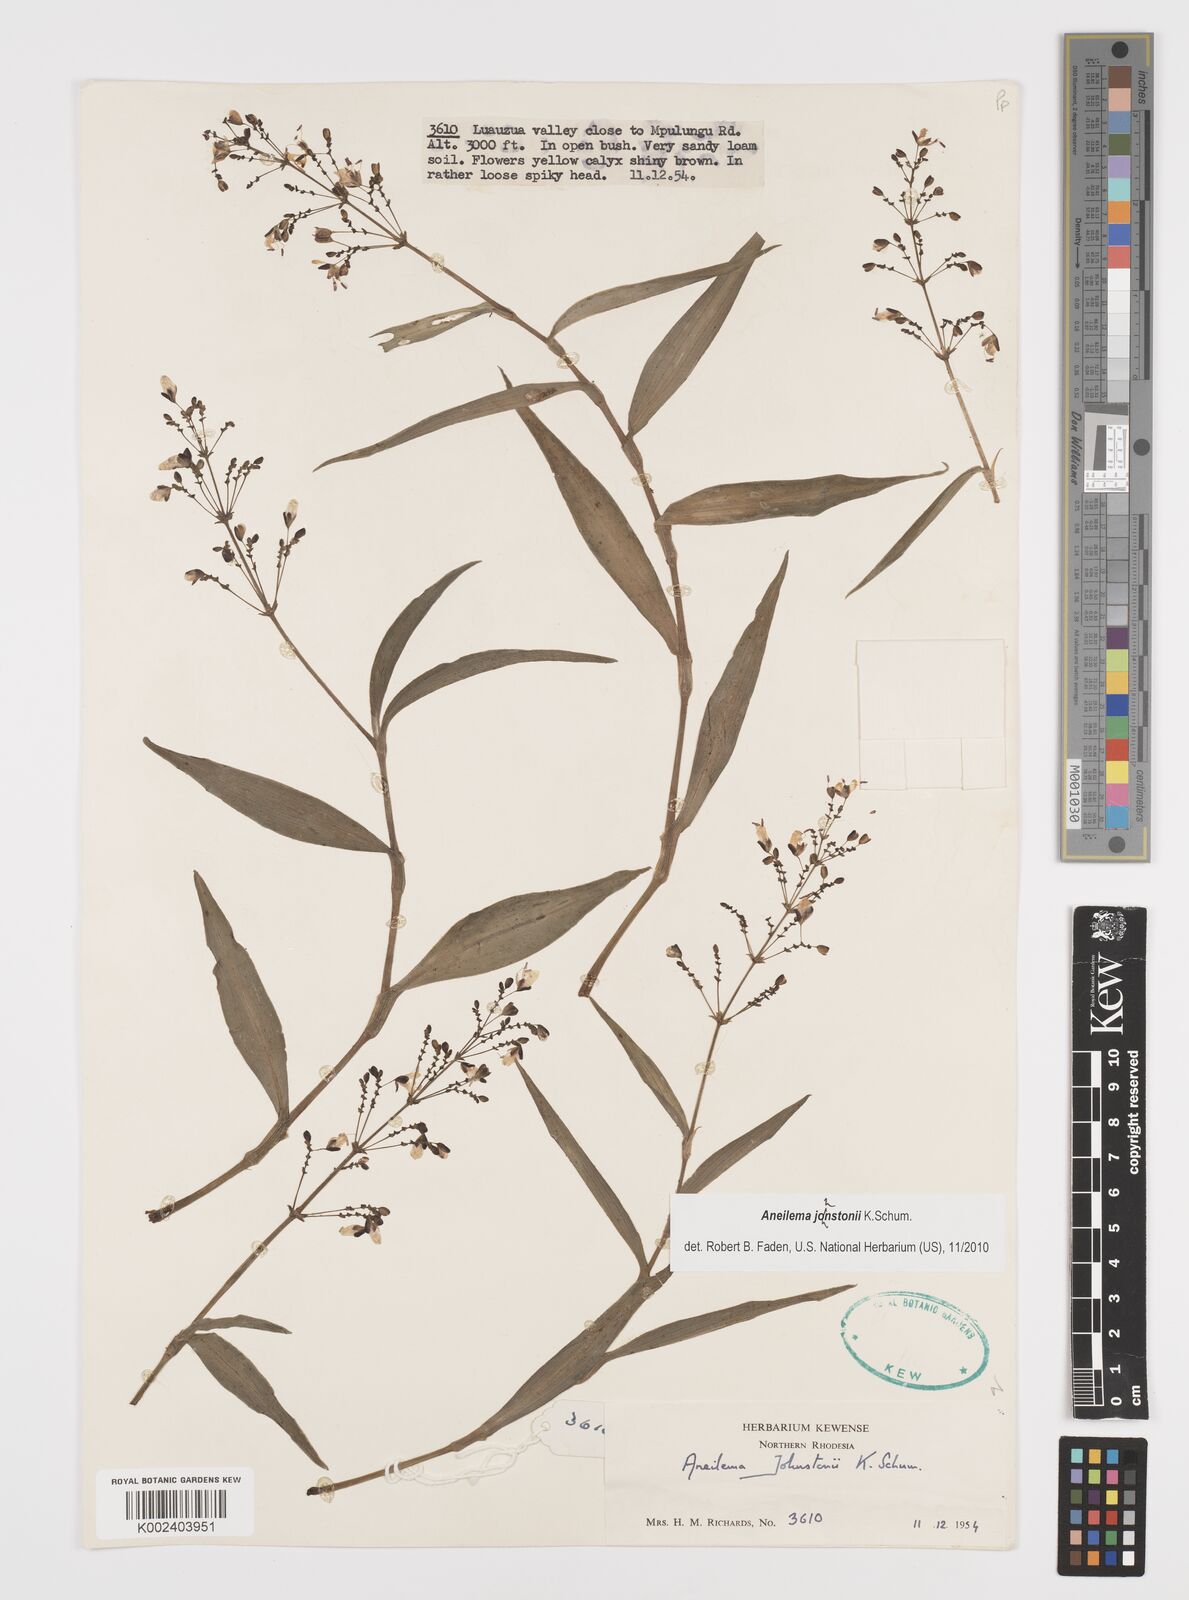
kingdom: Plantae
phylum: Tracheophyta
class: Liliopsida
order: Commelinales
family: Commelinaceae
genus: Aneilema
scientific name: Aneilema johnstonii
